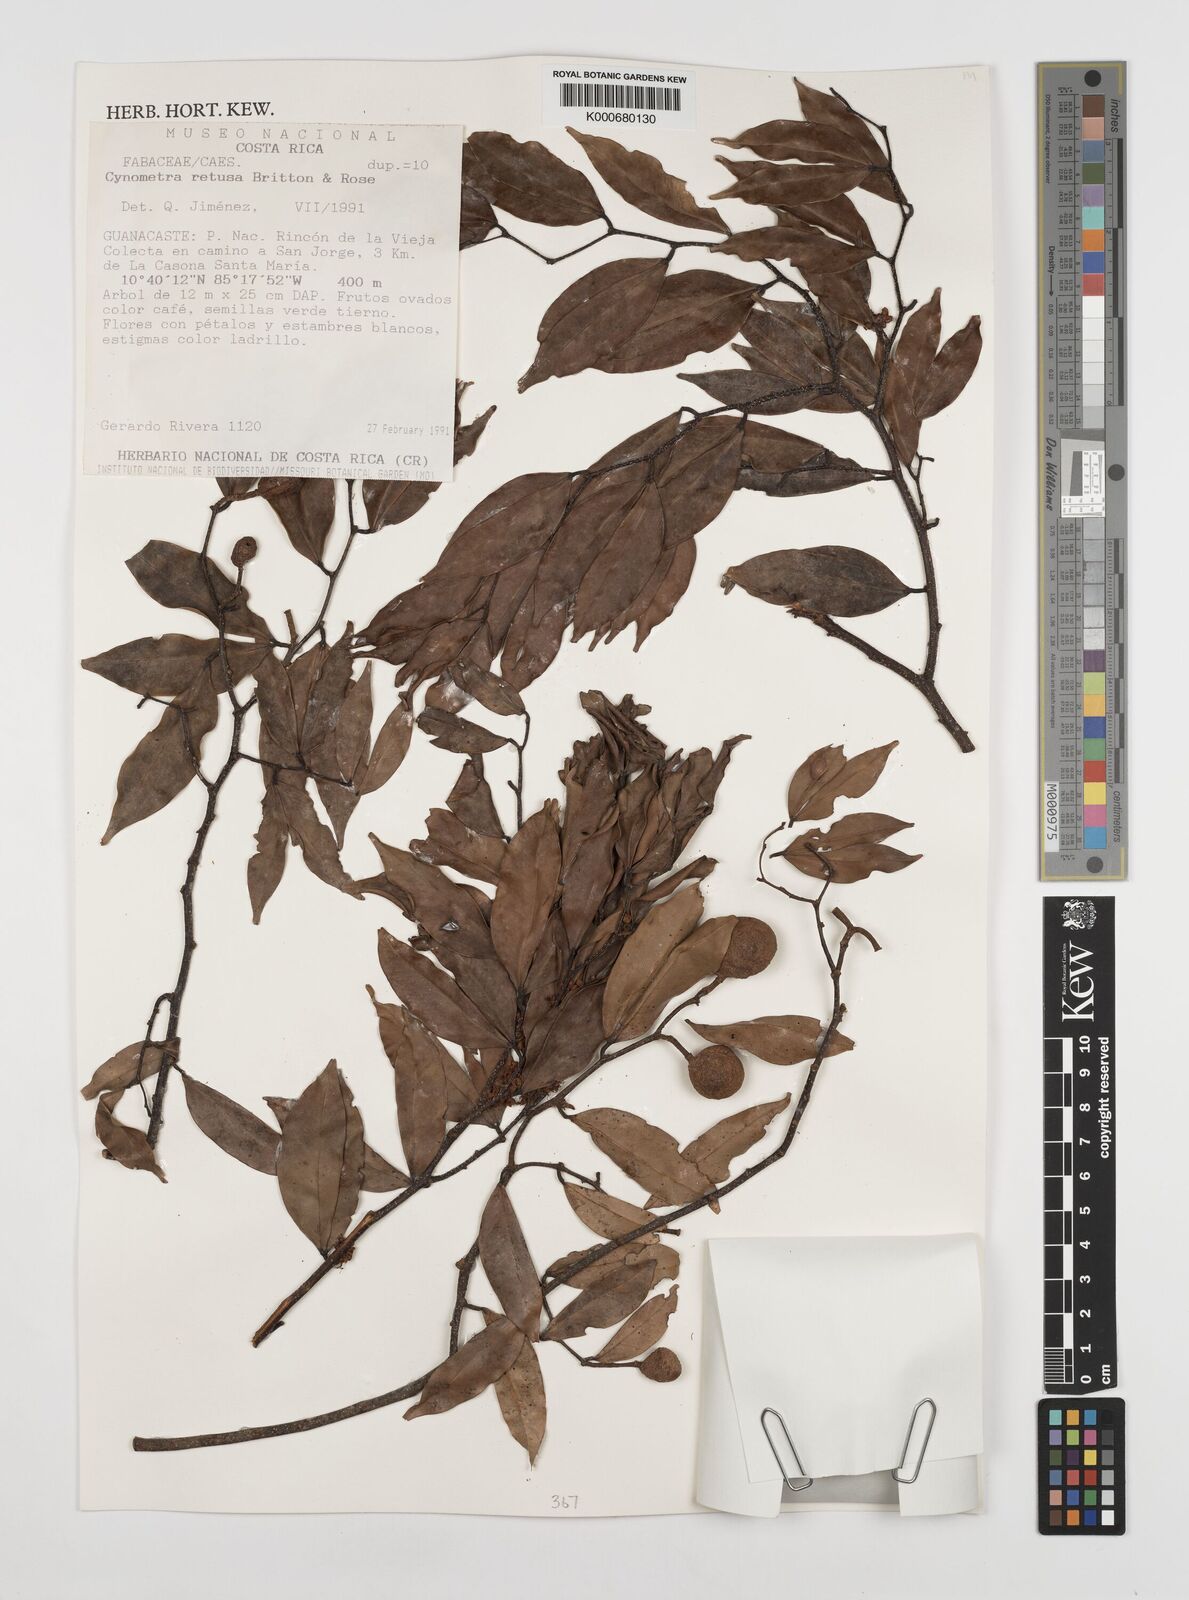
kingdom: Plantae
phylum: Tracheophyta
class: Magnoliopsida
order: Fabales
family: Fabaceae
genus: Cynometra
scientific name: Cynometra retusa
